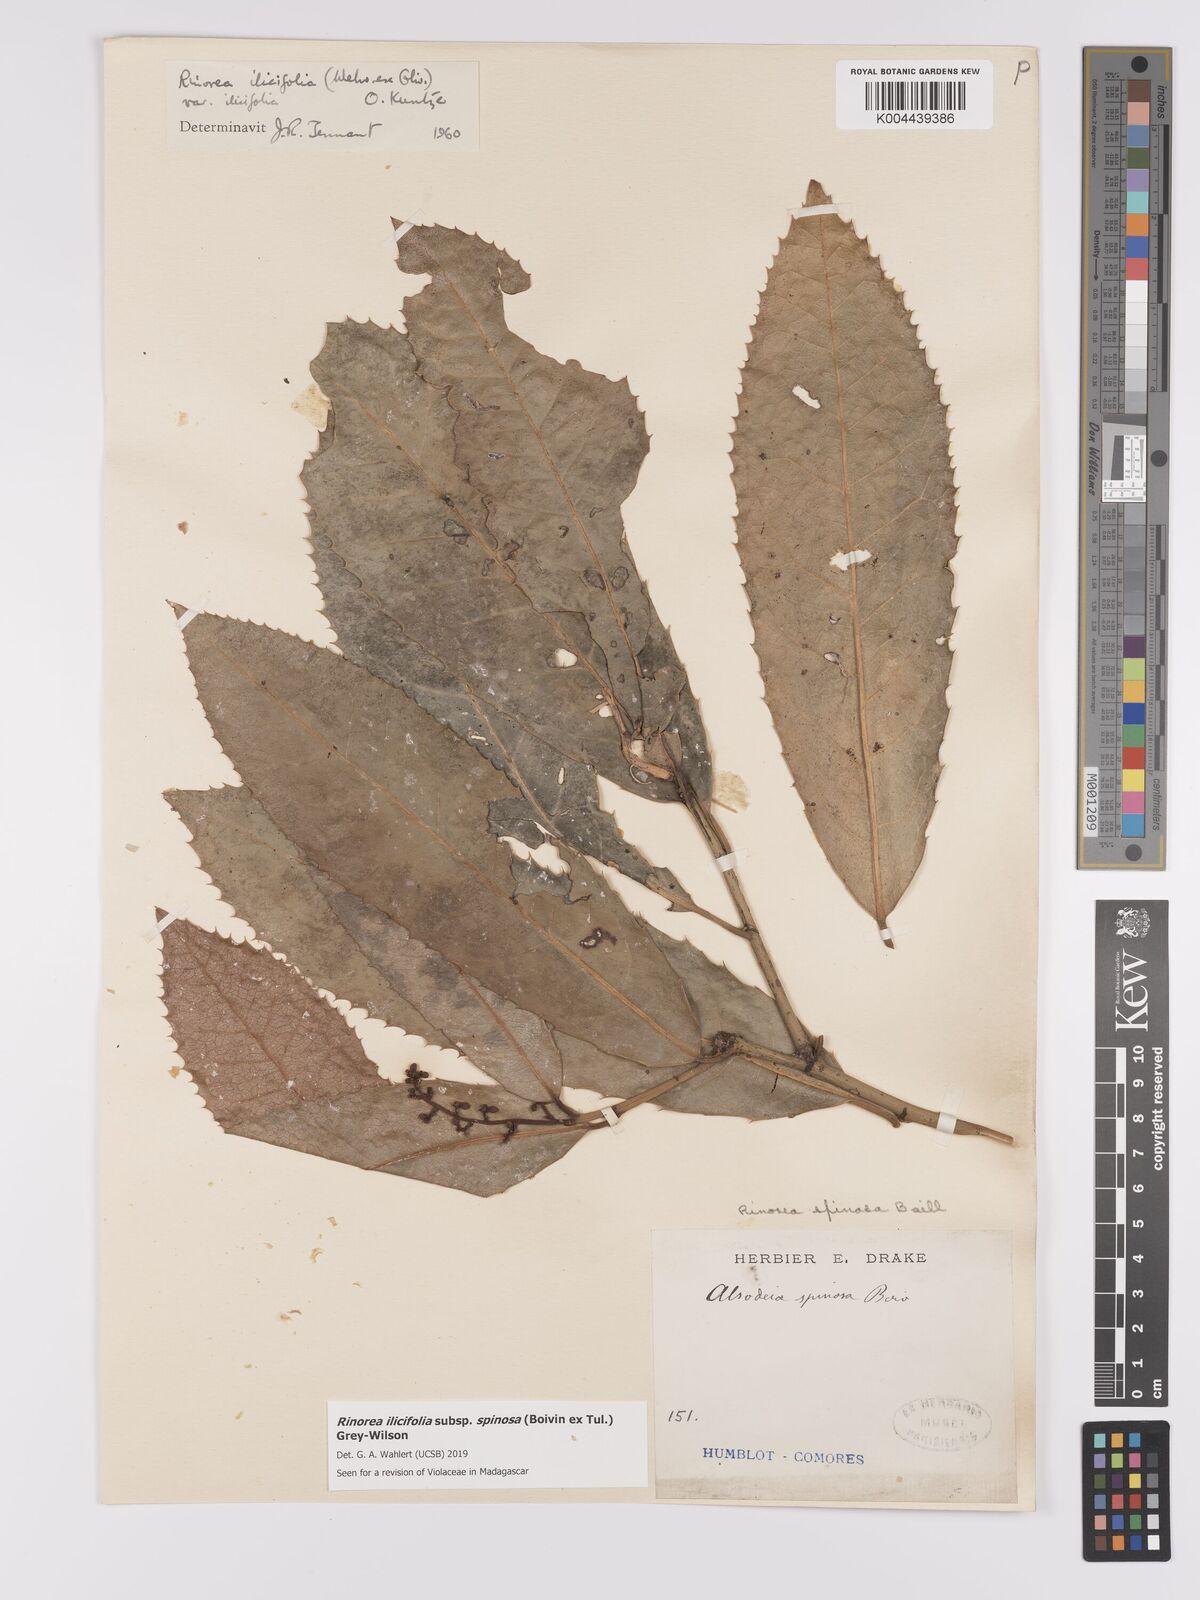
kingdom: Plantae
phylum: Tracheophyta
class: Magnoliopsida
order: Malpighiales
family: Violaceae
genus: Rinorea
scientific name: Rinorea spinosa
